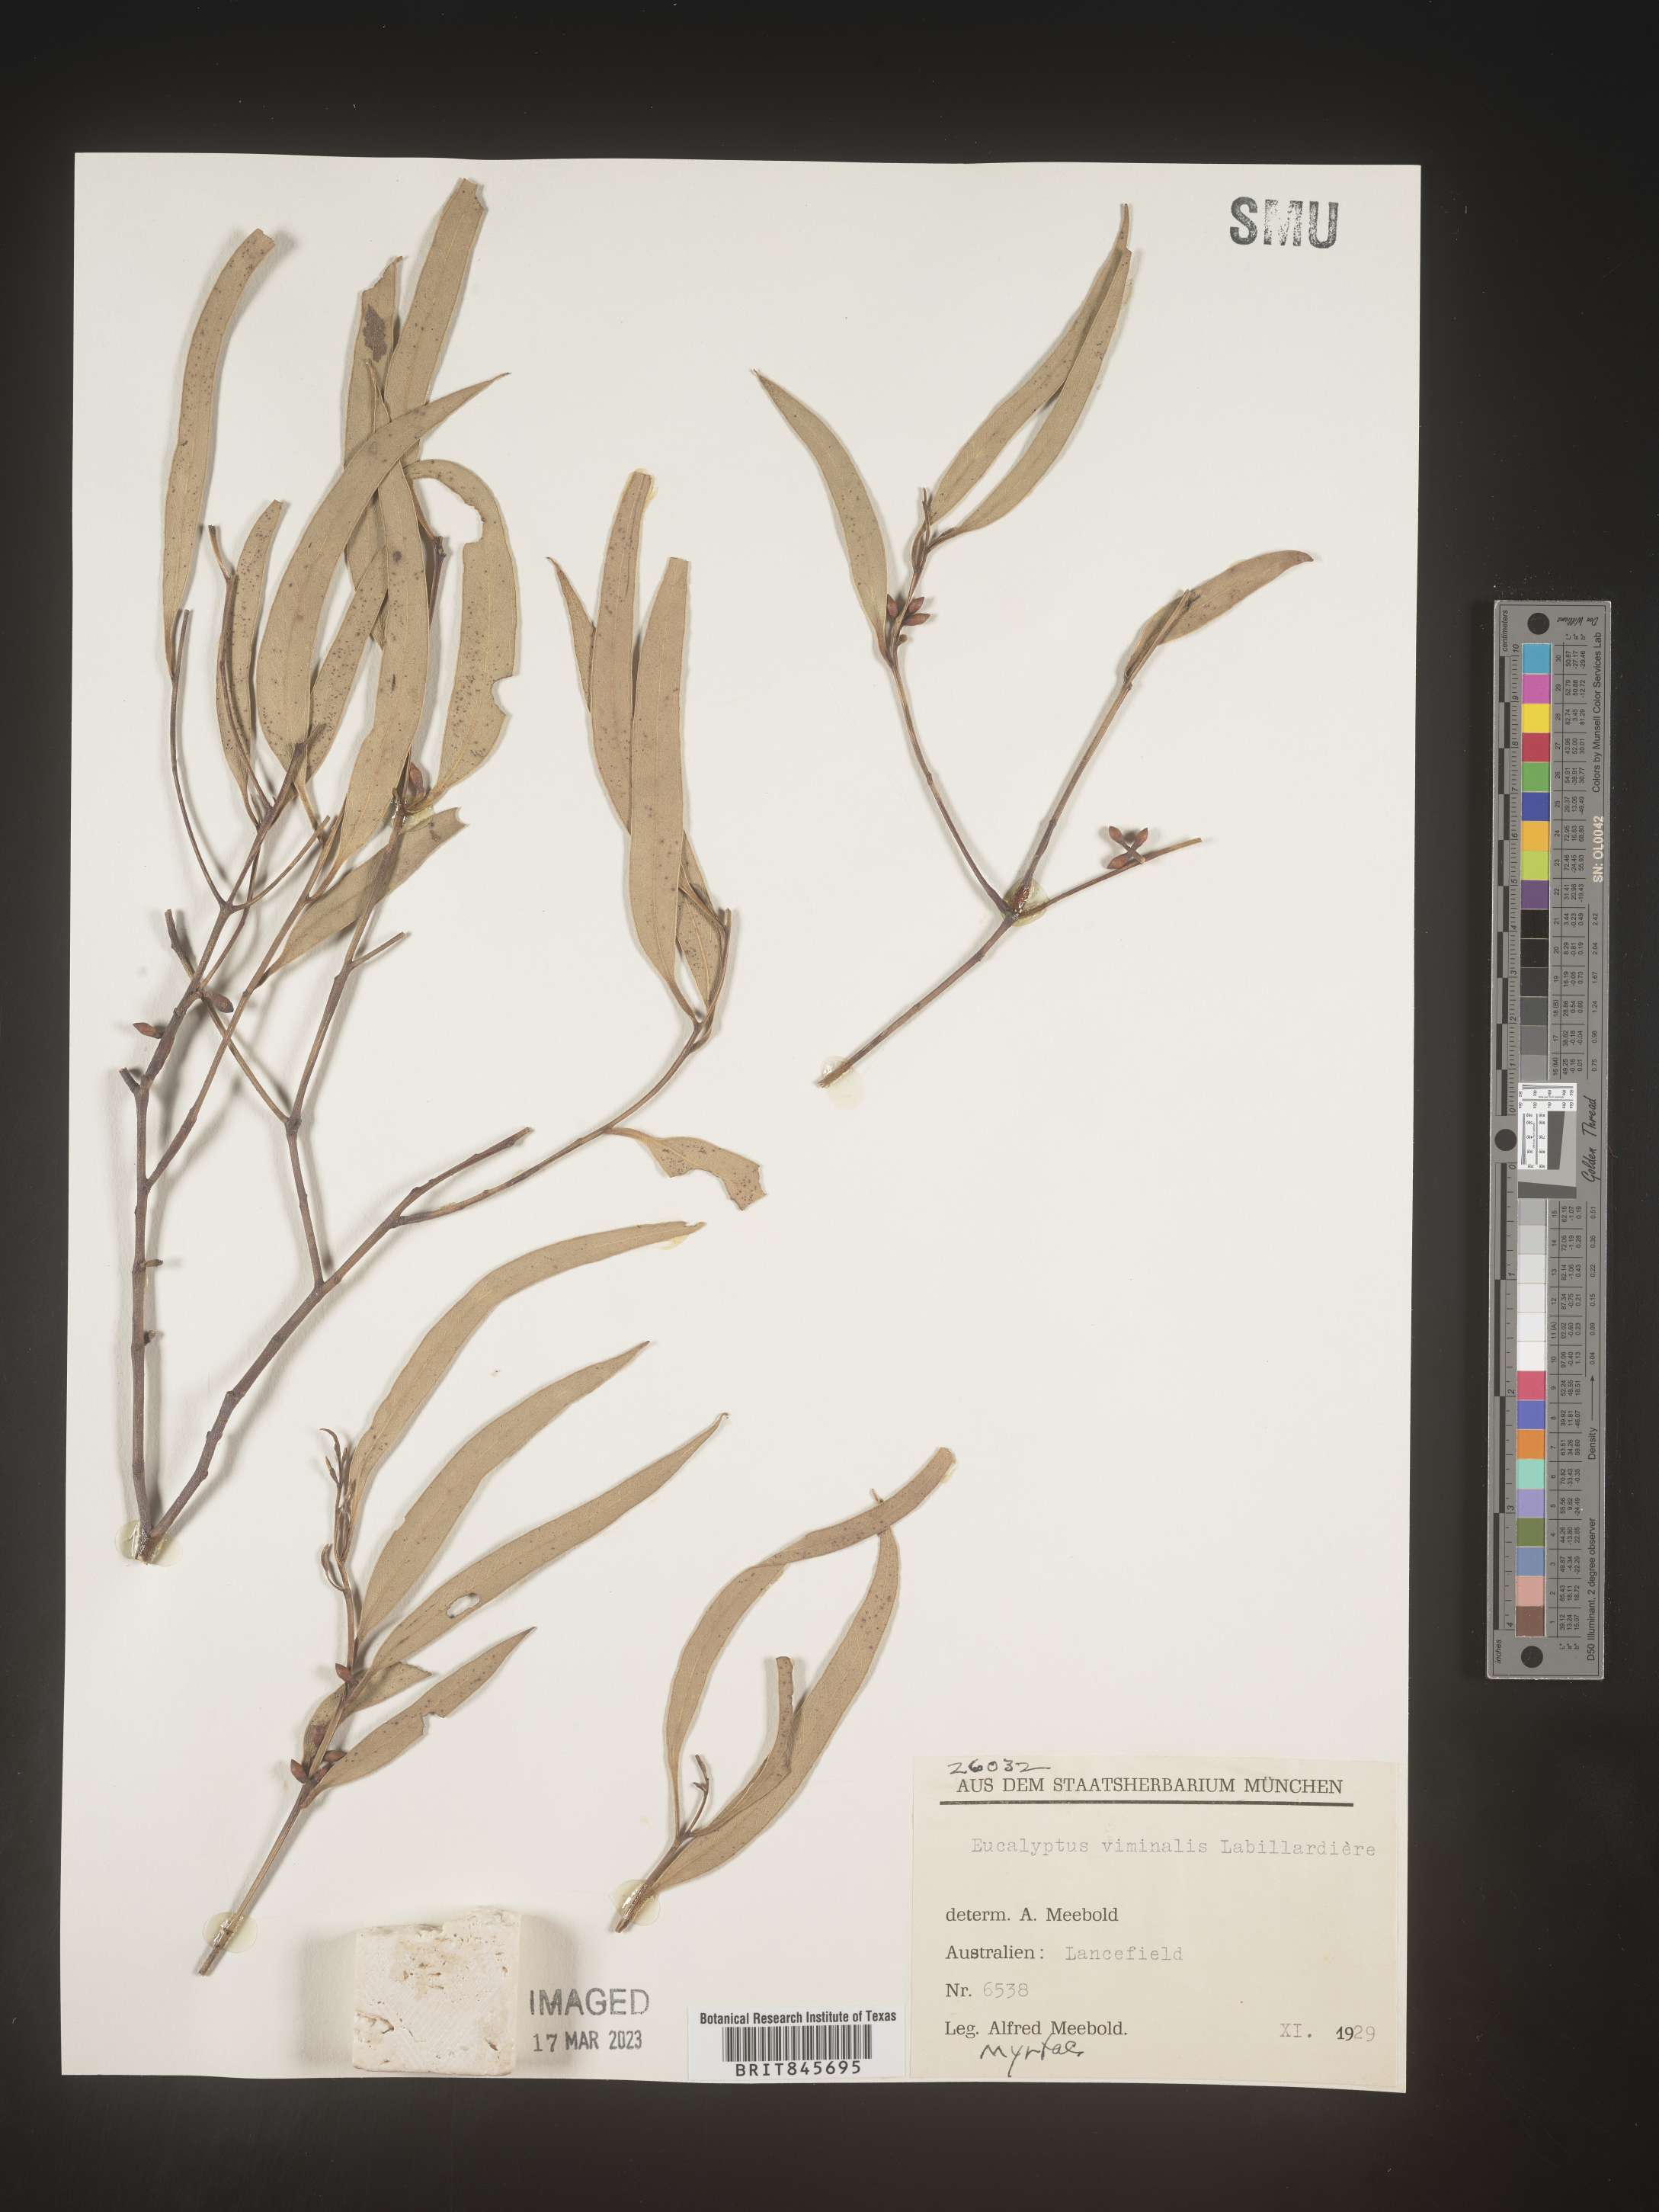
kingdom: Plantae
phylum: Tracheophyta
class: Magnoliopsida
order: Myrtales
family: Myrtaceae
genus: Eucalyptus
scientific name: Eucalyptus
